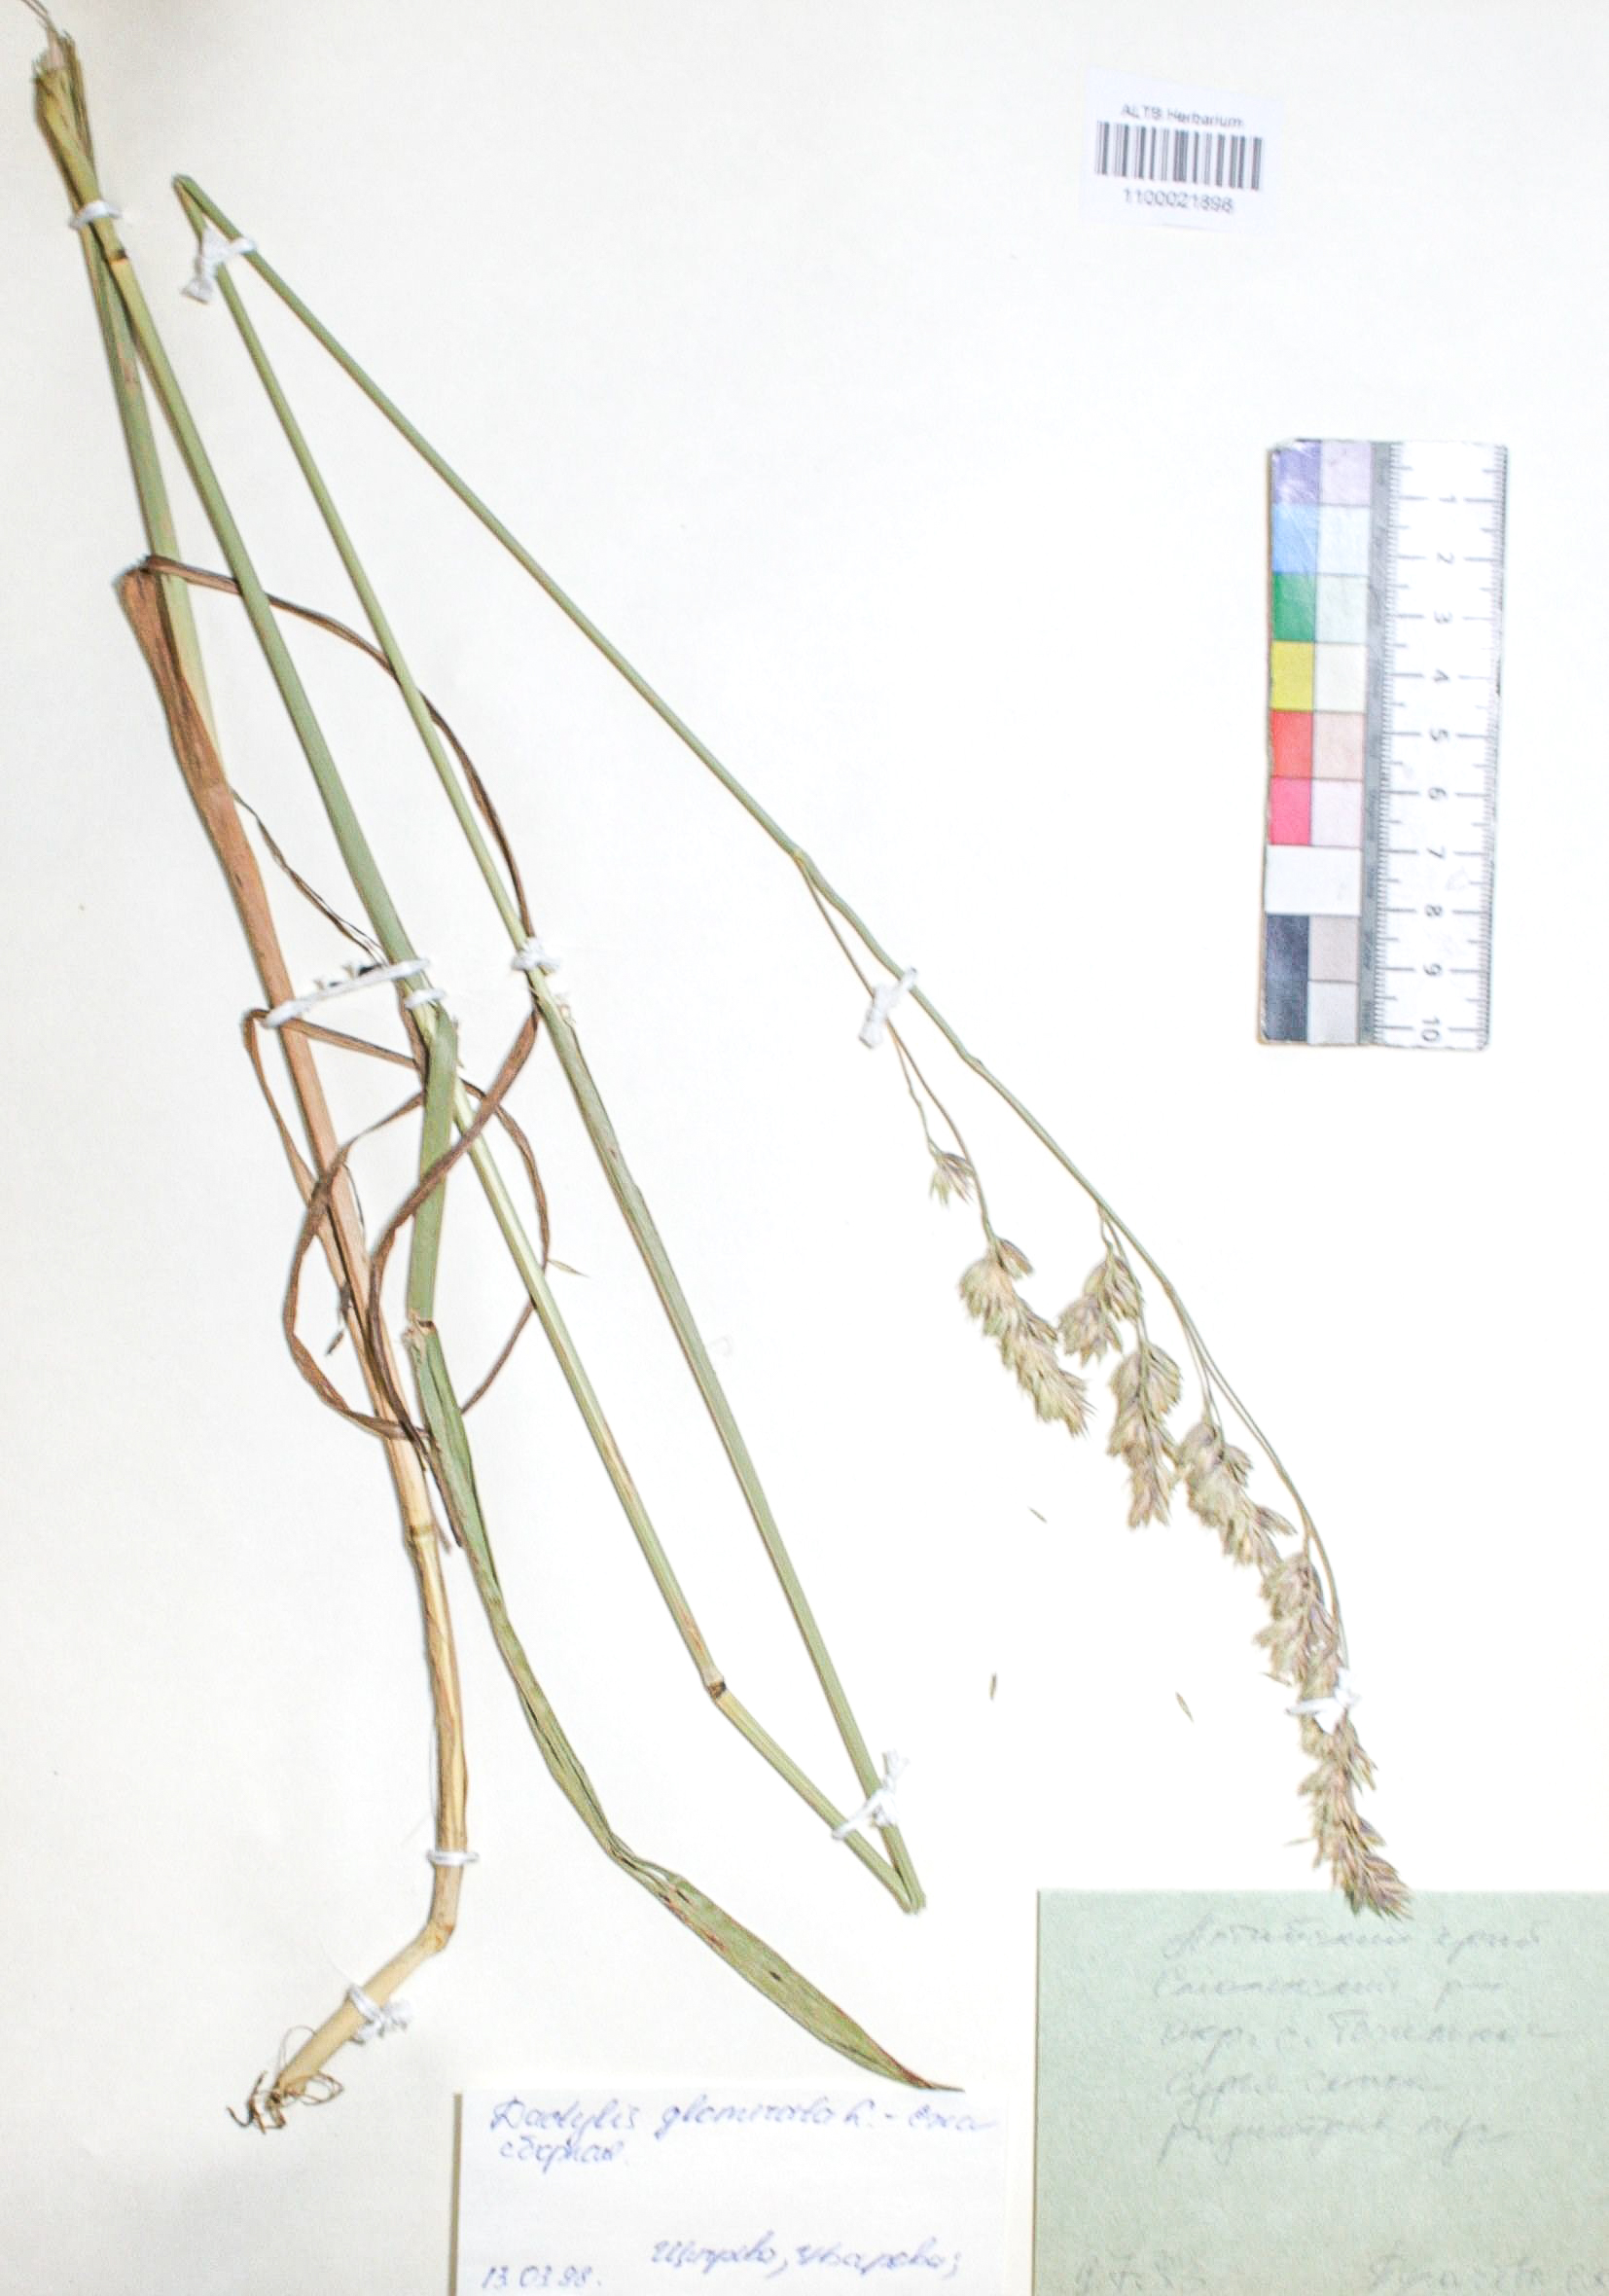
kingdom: Plantae
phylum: Tracheophyta
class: Liliopsida
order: Poales
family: Poaceae
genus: Dactylis
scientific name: Dactylis glomerata
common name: Orchardgrass
